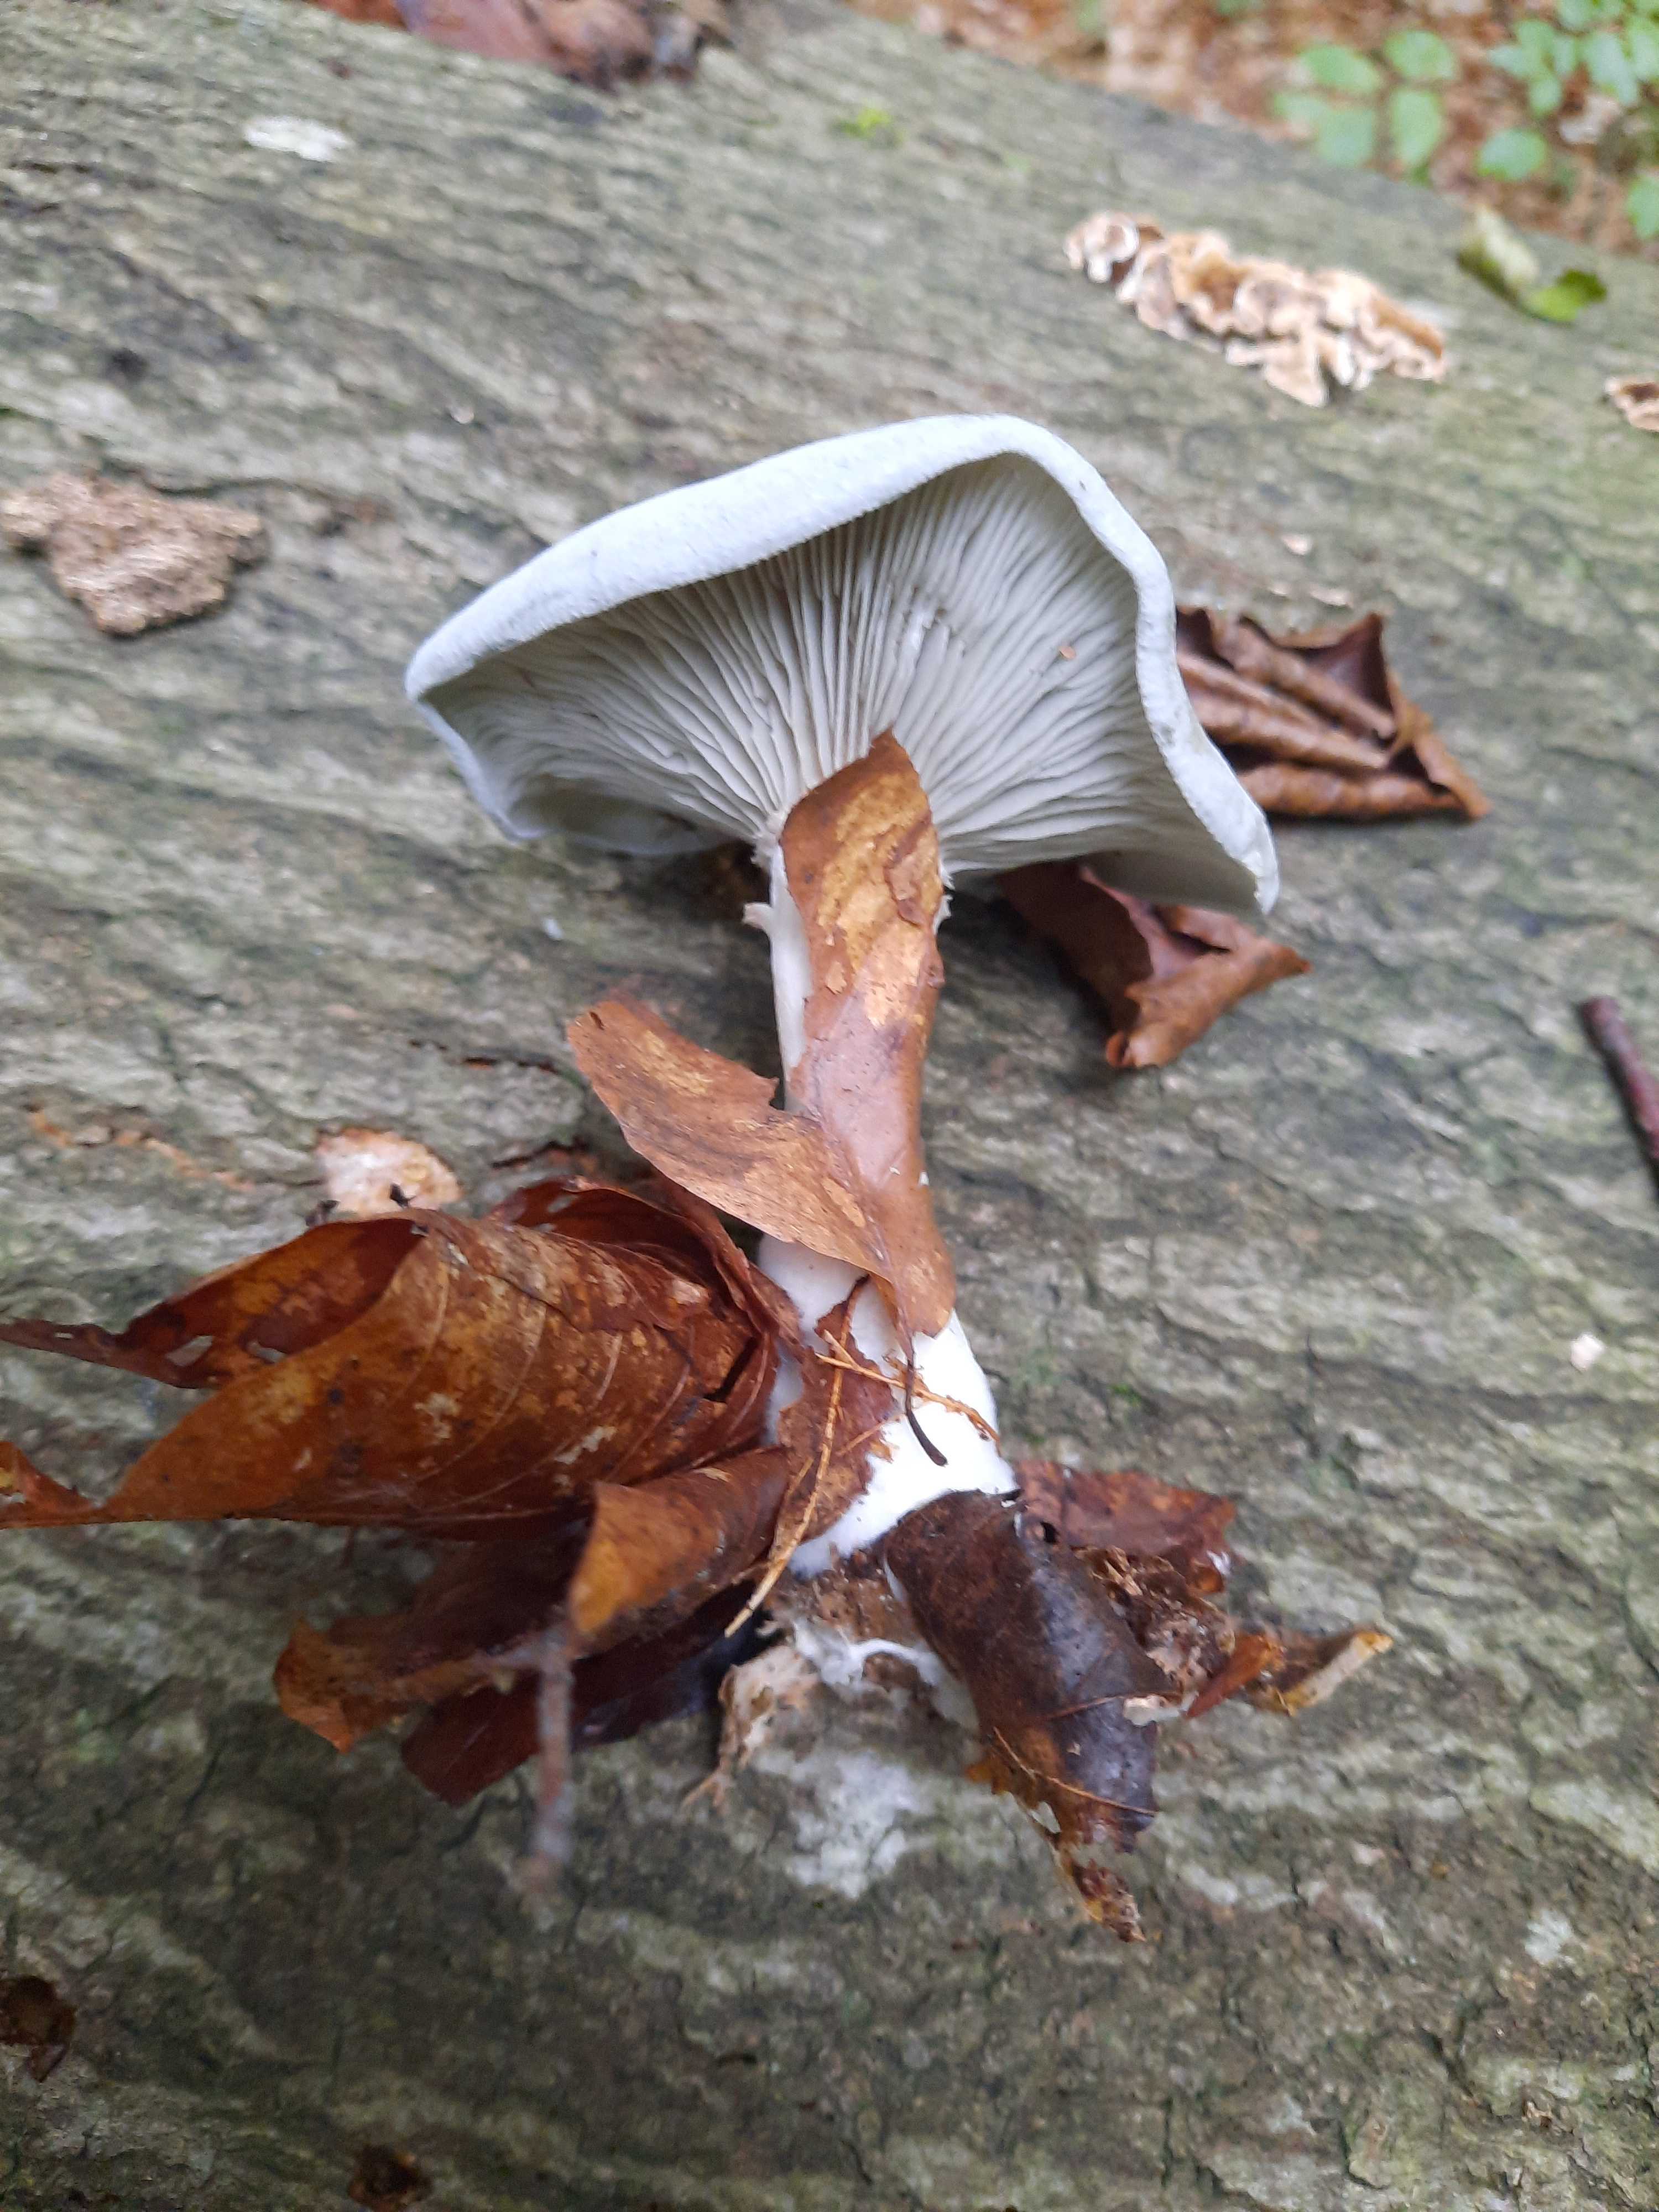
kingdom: Fungi
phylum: Basidiomycota
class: Agaricomycetes
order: Agaricales
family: Tricholomataceae
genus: Clitocybe
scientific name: Clitocybe odora
